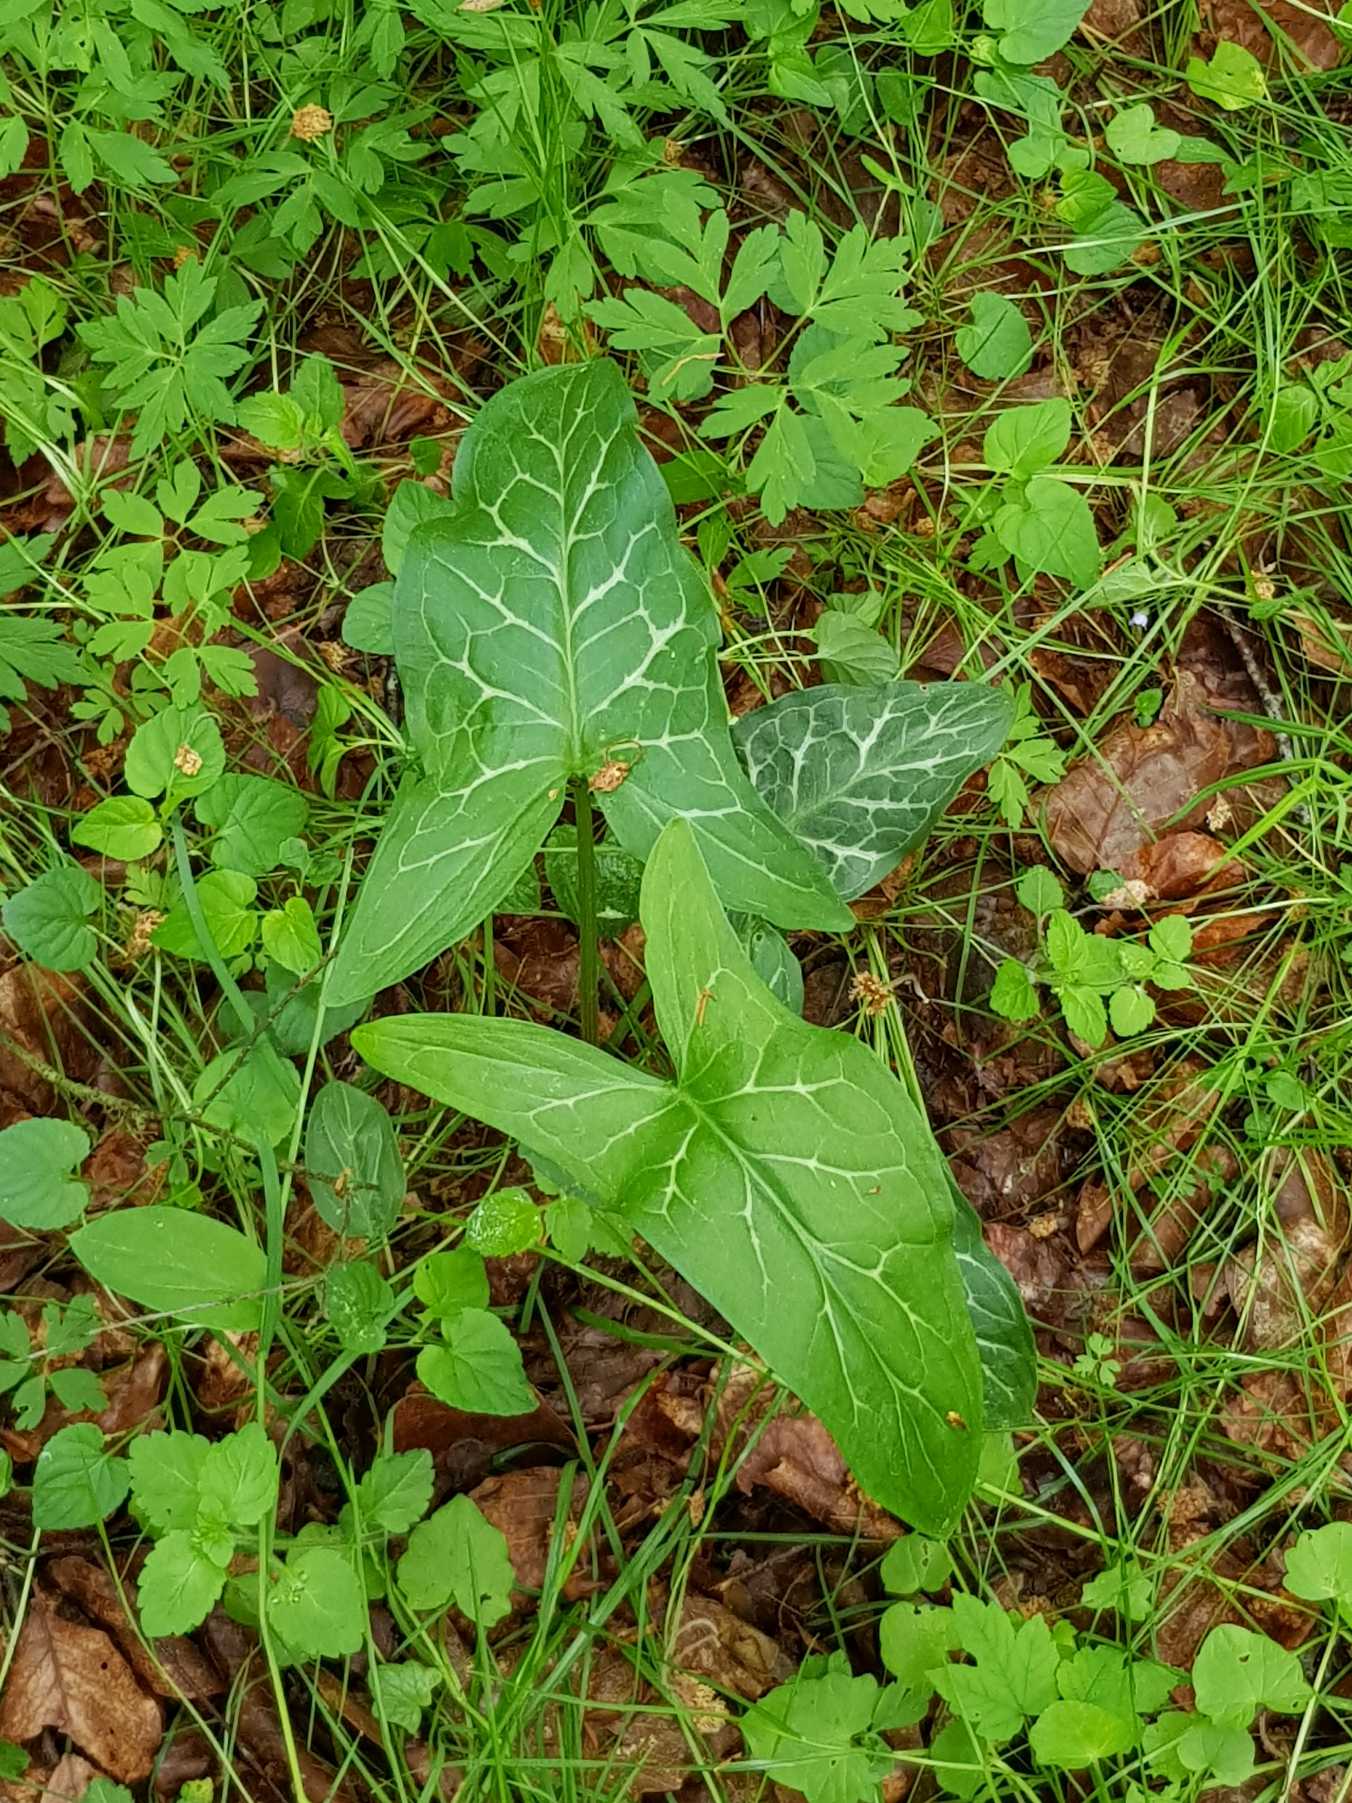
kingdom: Plantae
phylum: Tracheophyta
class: Liliopsida
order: Alismatales
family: Araceae
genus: Arum
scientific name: Arum italicum
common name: Italiensk arum
